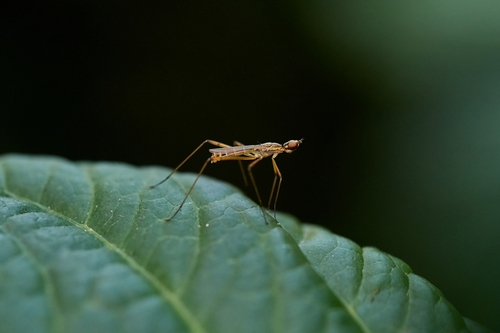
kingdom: Animalia
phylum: Arthropoda
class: Insecta
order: Diptera
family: Micropezidae
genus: Micropeza
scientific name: Micropeza lateralis
